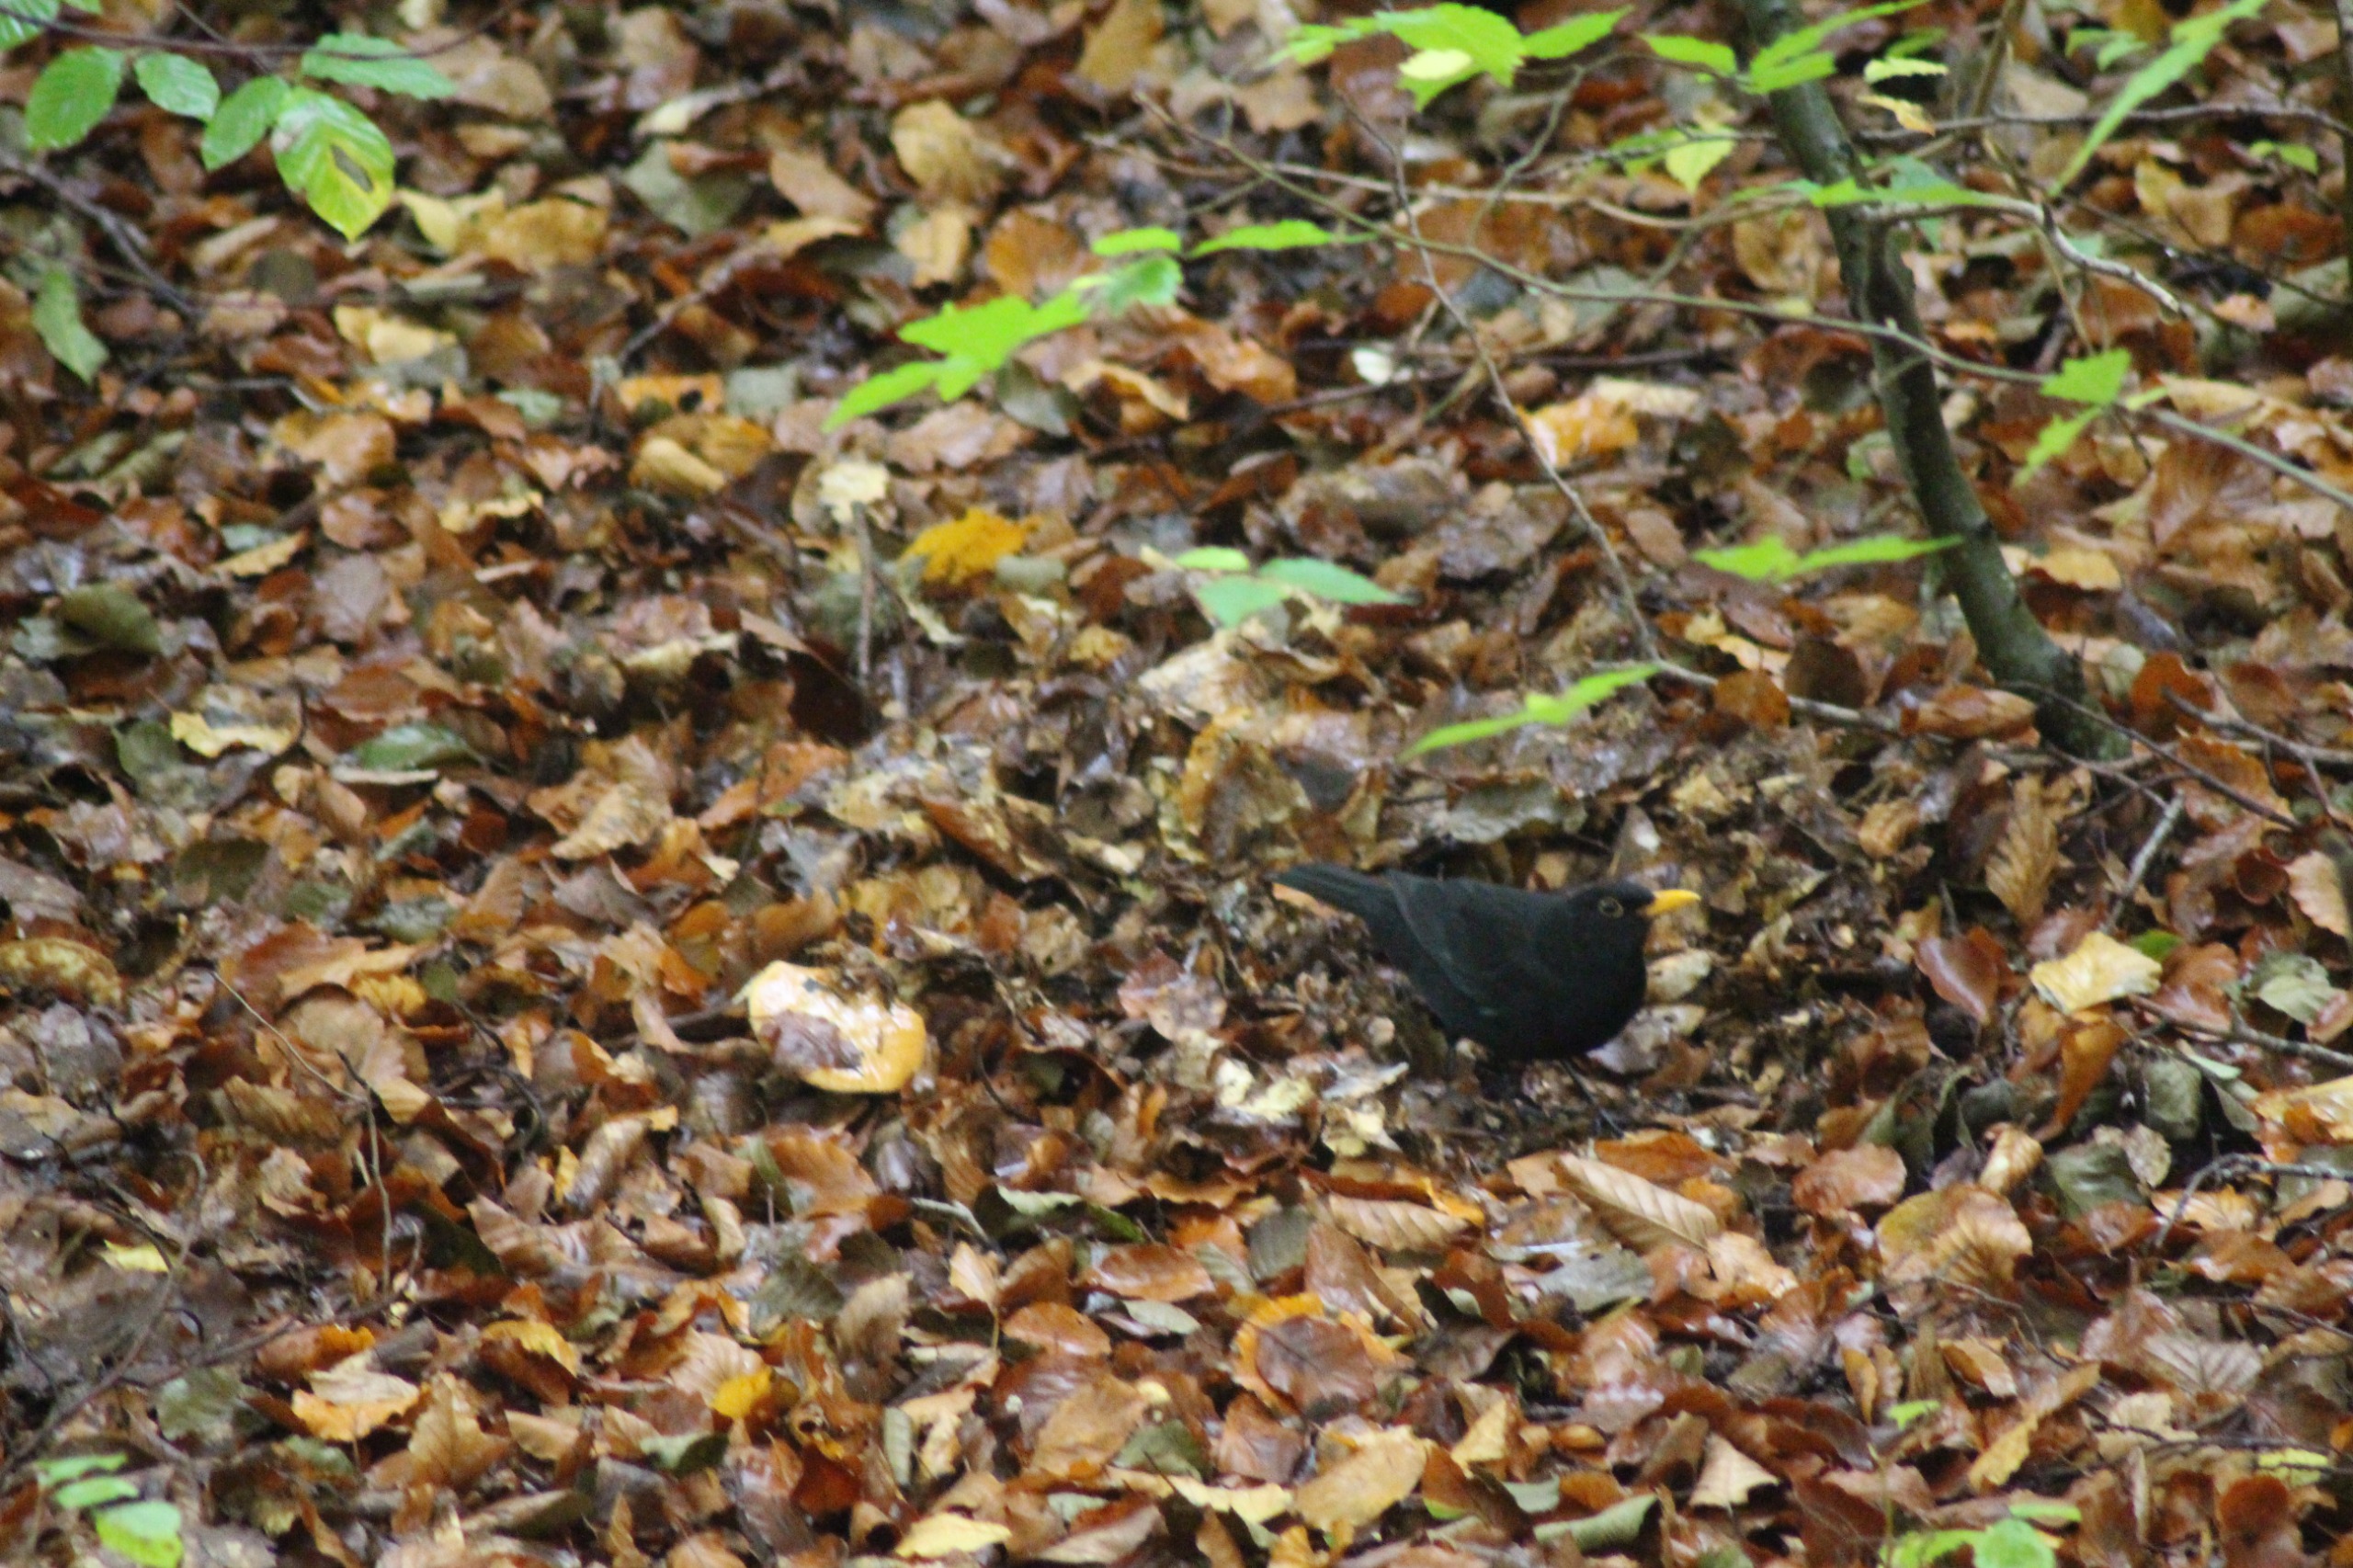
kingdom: Animalia
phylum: Chordata
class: Aves
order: Passeriformes
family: Turdidae
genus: Turdus
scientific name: Turdus merula
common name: Solsort
